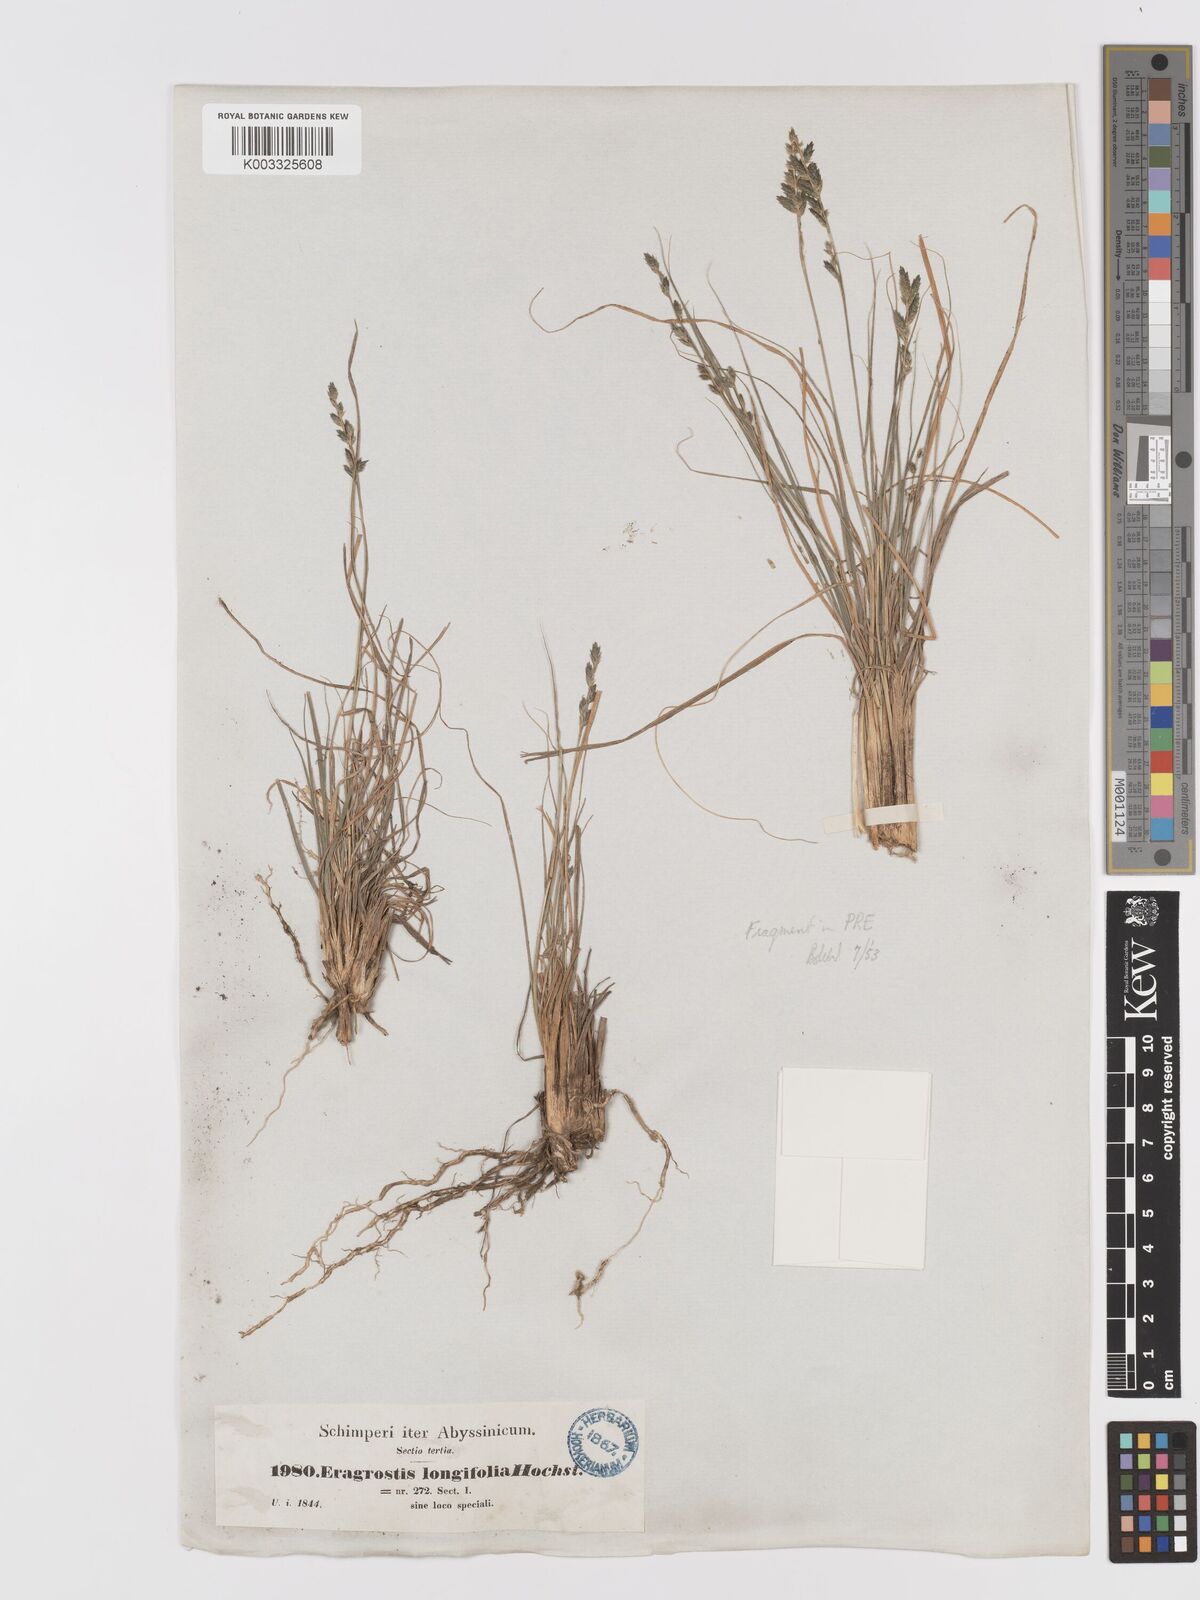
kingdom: Plantae
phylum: Tracheophyta
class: Liliopsida
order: Poales
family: Poaceae
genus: Eragrostis
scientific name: Eragrostis longifolia
